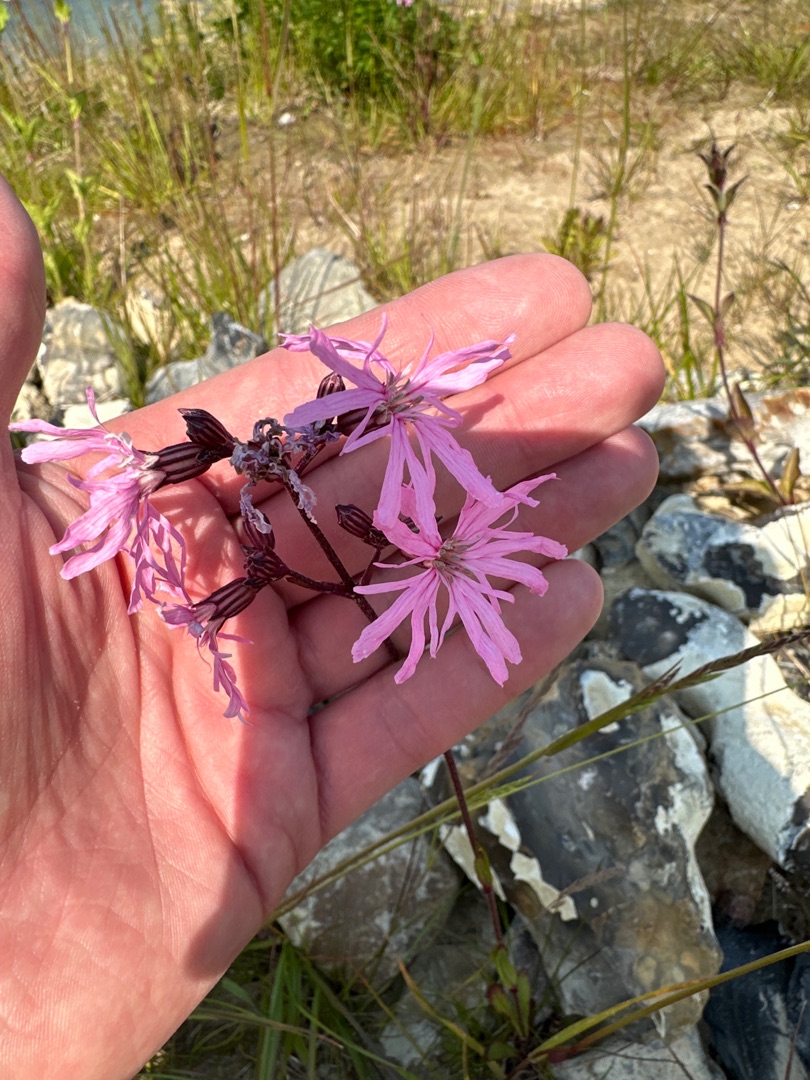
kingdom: Plantae
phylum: Tracheophyta
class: Magnoliopsida
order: Caryophyllales
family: Caryophyllaceae
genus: Silene
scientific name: Silene flos-cuculi
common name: Trævlekrone
